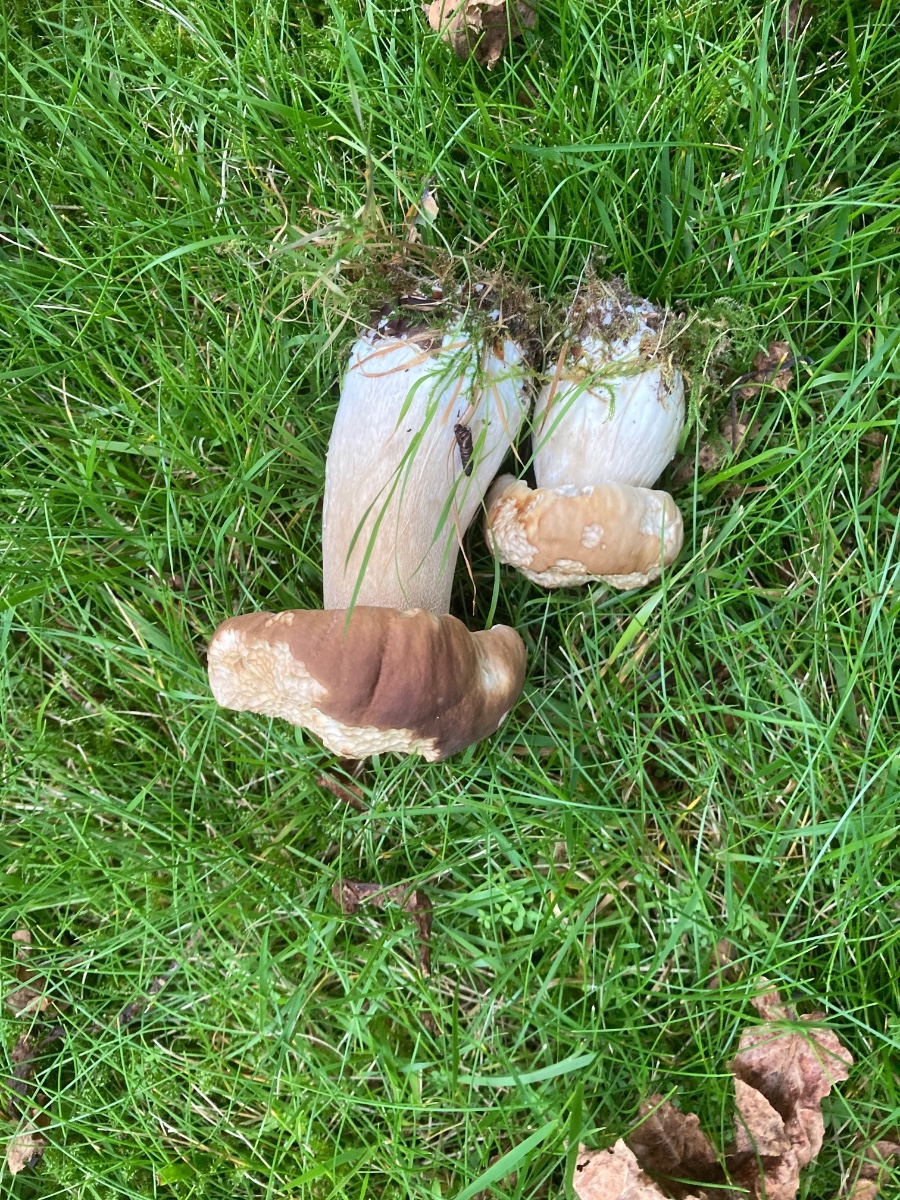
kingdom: Fungi
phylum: Basidiomycota
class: Agaricomycetes
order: Boletales
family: Boletaceae
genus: Boletus
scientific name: Boletus edulis
